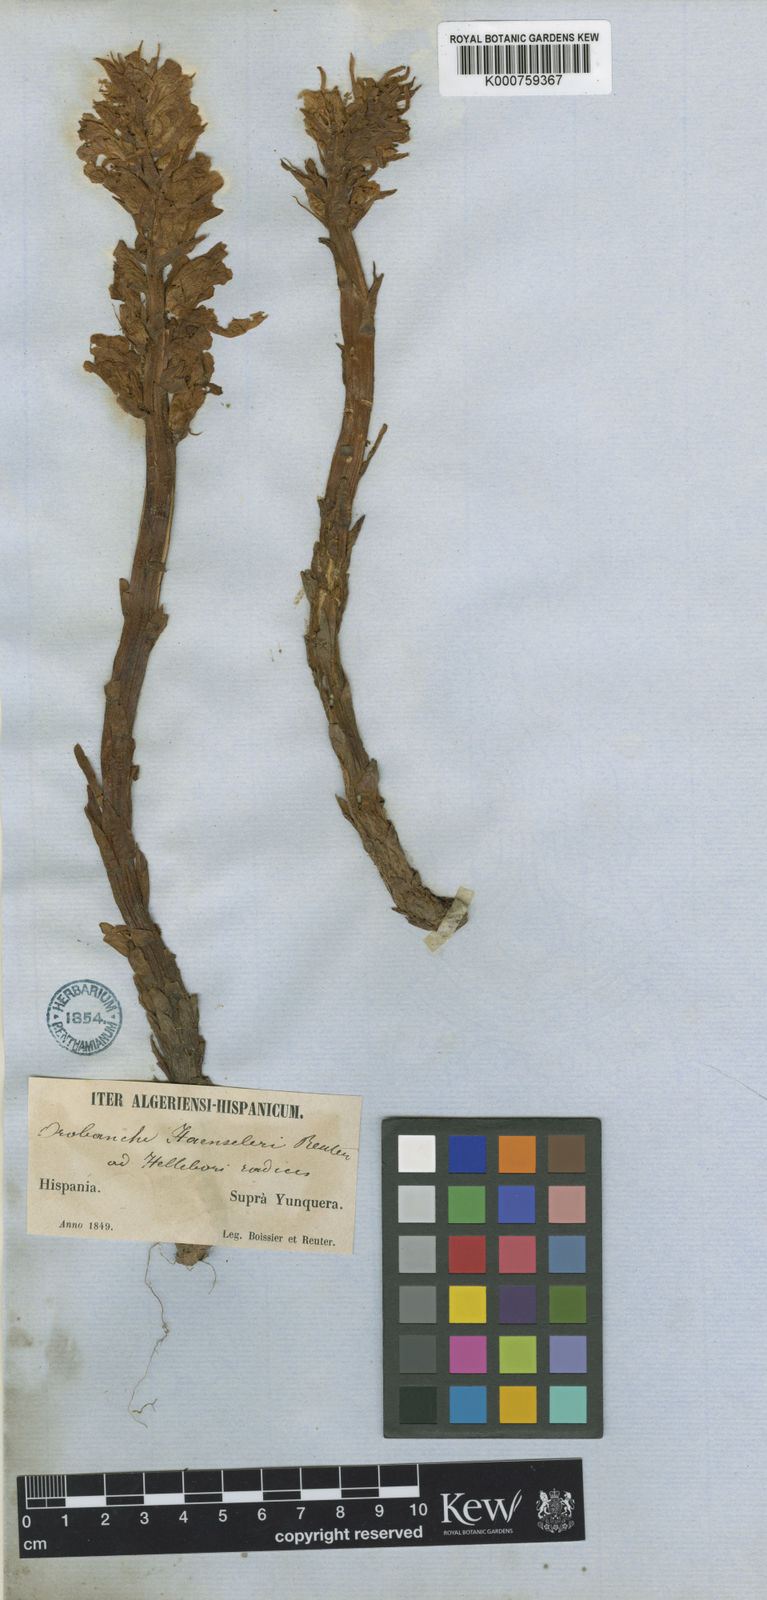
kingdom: Plantae
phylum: Tracheophyta
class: Magnoliopsida
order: Lamiales
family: Orobanchaceae
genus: Orobanche
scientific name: Orobanche haenseleri
